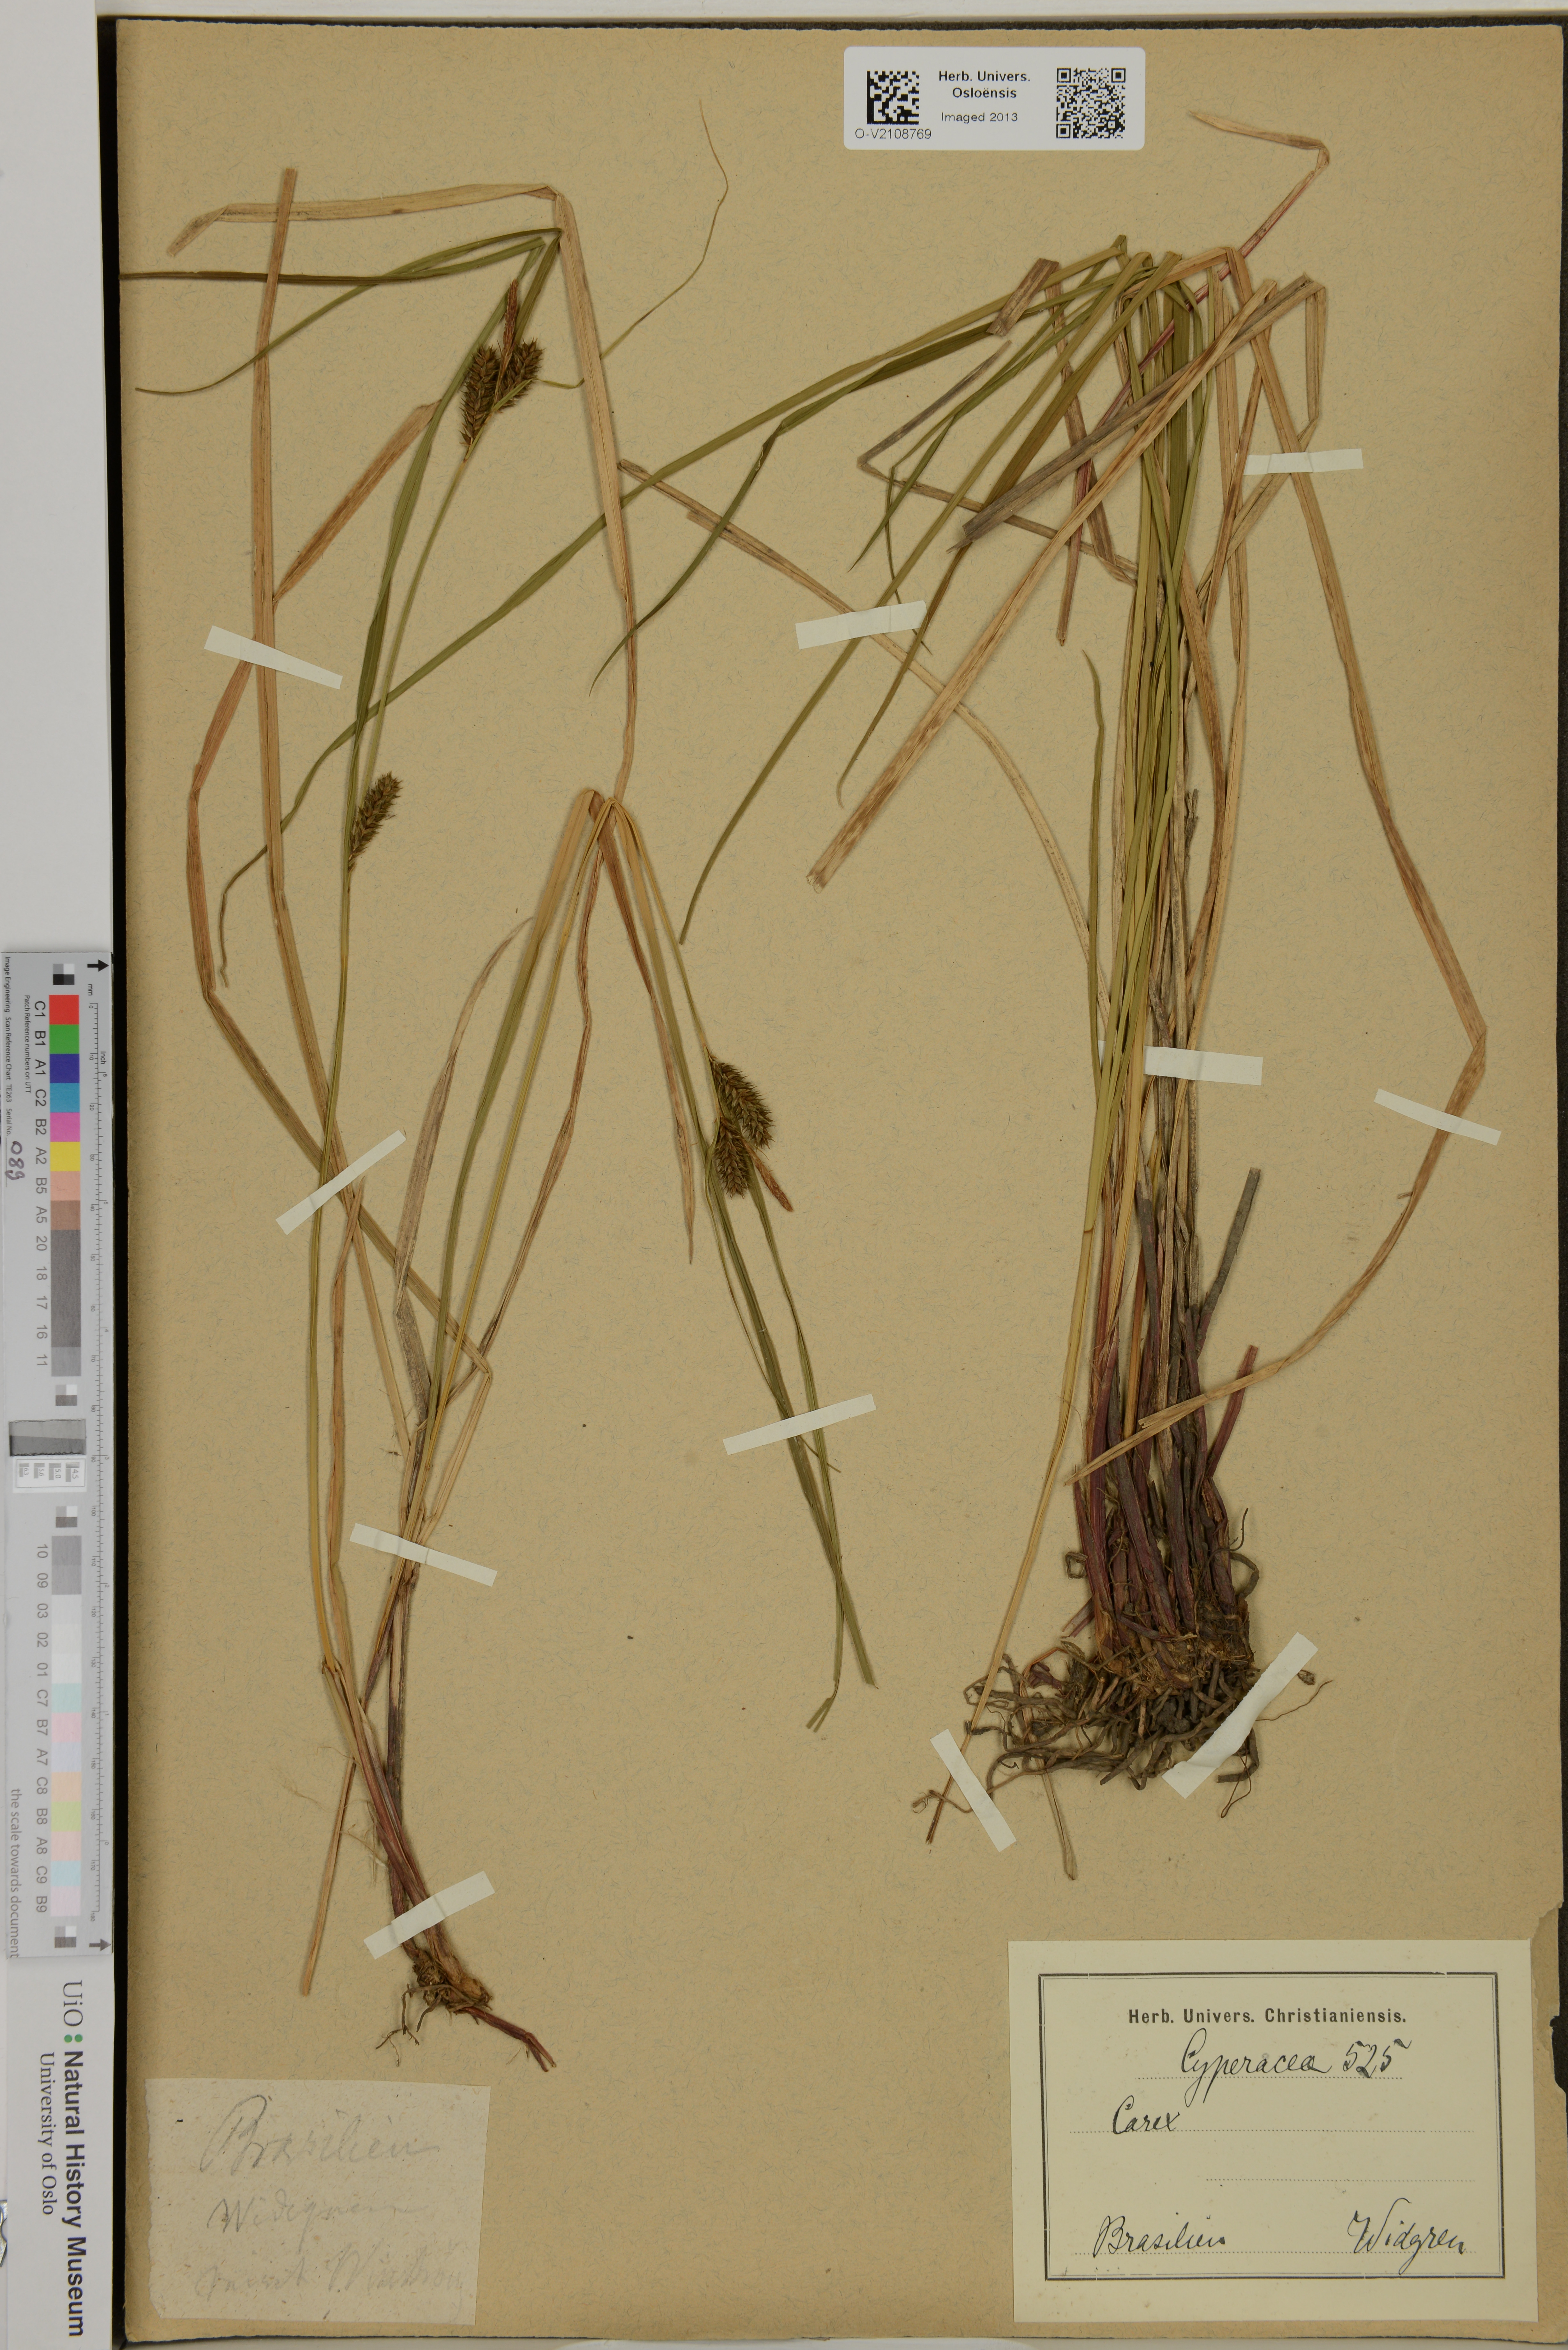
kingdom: Plantae
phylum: Tracheophyta
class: Liliopsida
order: Poales
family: Cyperaceae
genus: Carex
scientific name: Carex
